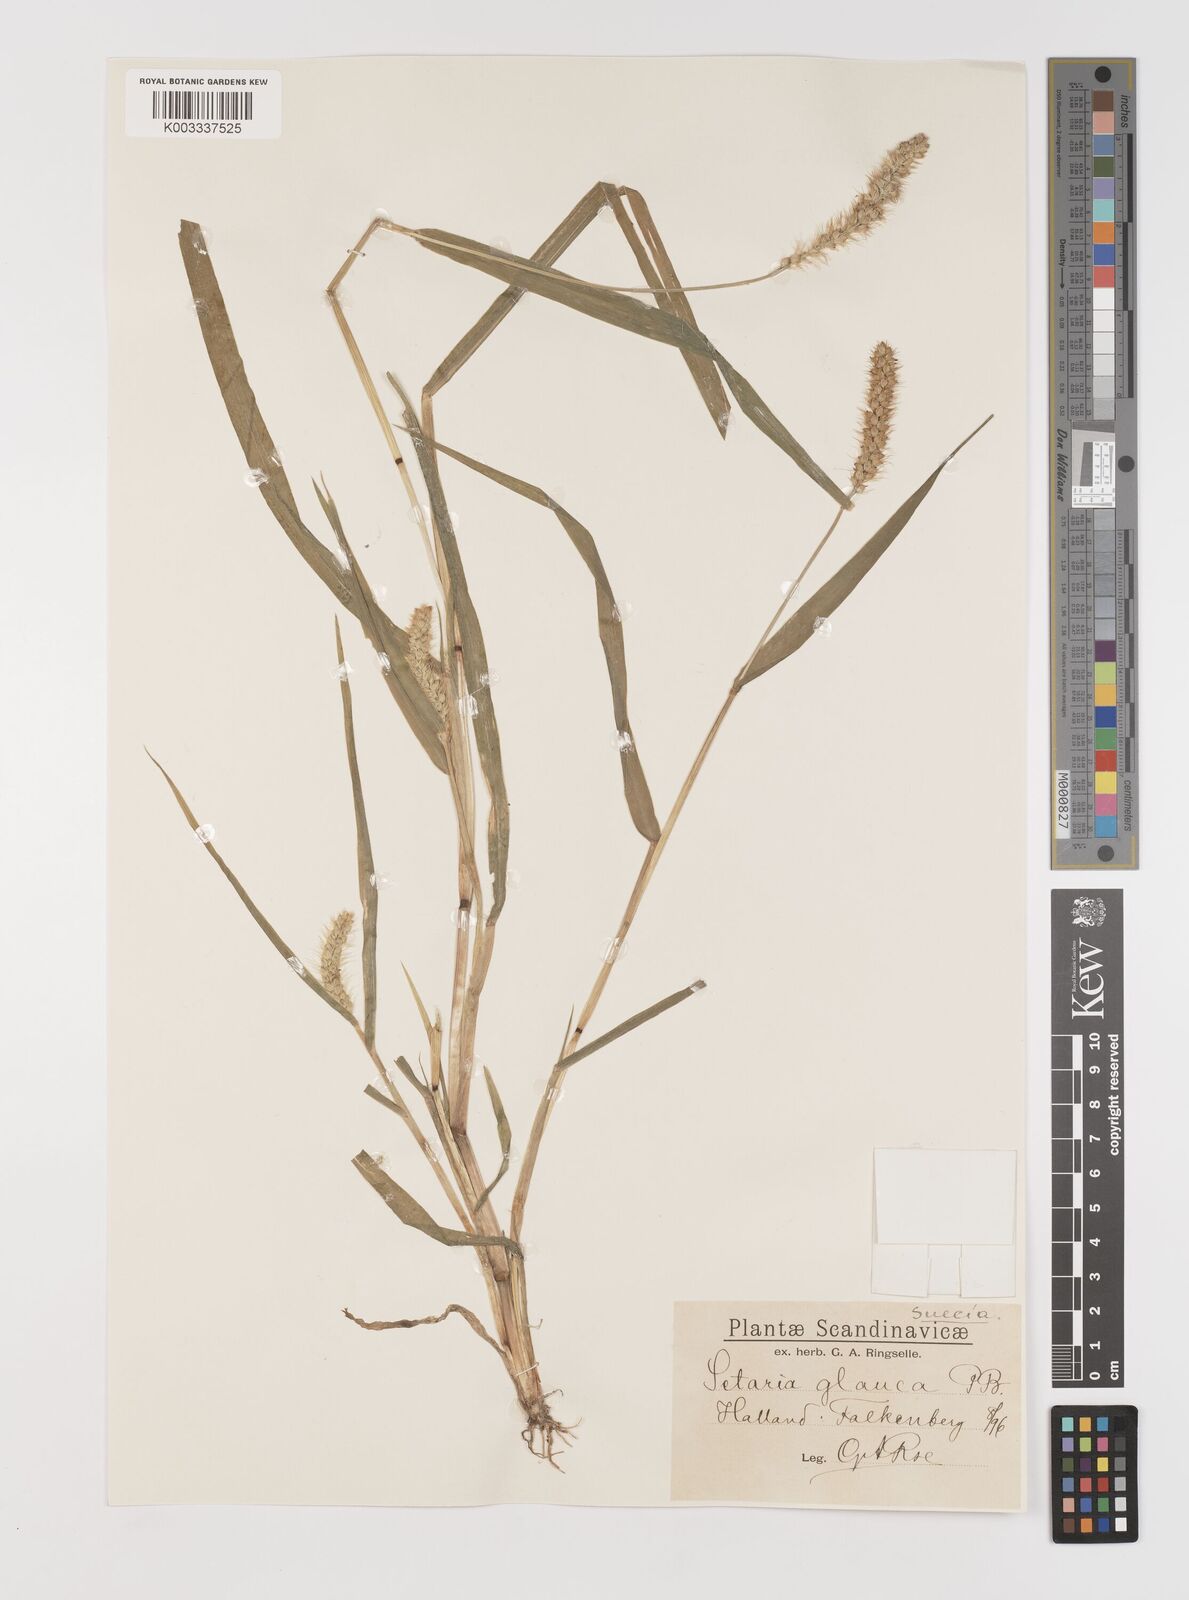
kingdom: Plantae
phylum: Tracheophyta
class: Liliopsida
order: Poales
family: Poaceae
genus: Setaria
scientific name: Setaria pumila
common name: Yellow bristle-grass
